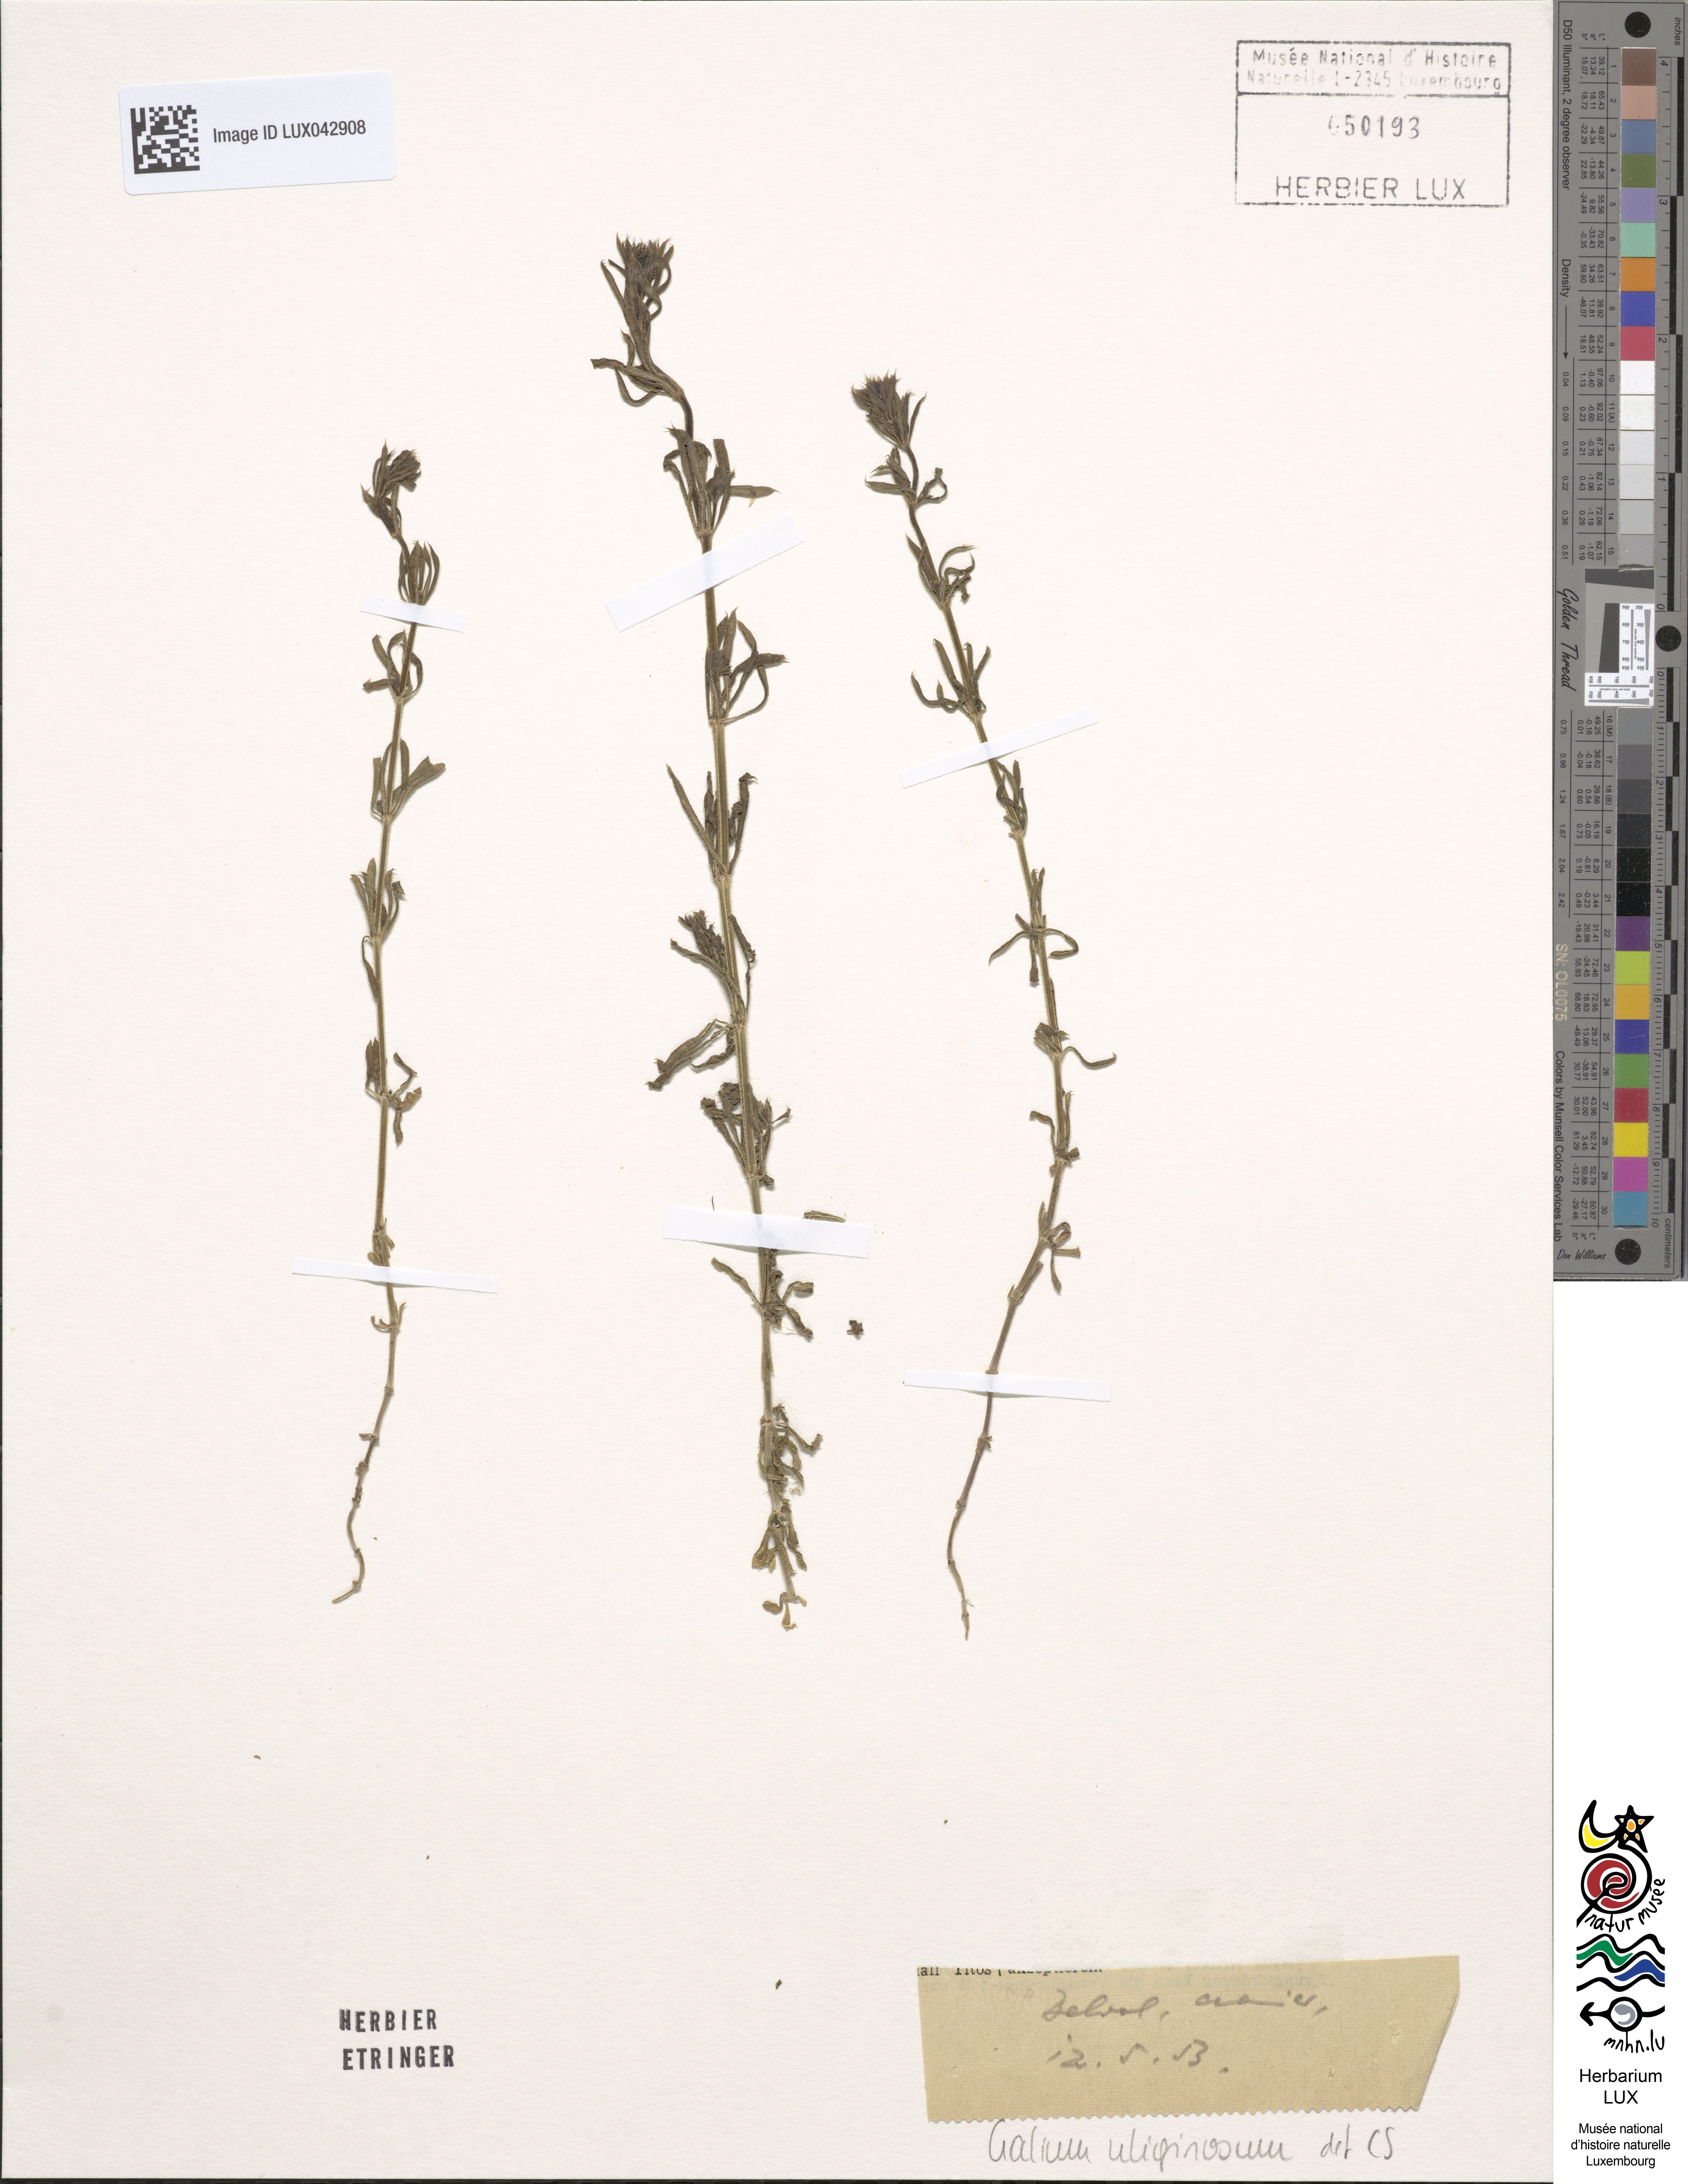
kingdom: Plantae
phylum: Tracheophyta
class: Magnoliopsida
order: Gentianales
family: Rubiaceae
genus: Galium
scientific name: Galium uliginosum
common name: Fen bedstraw
